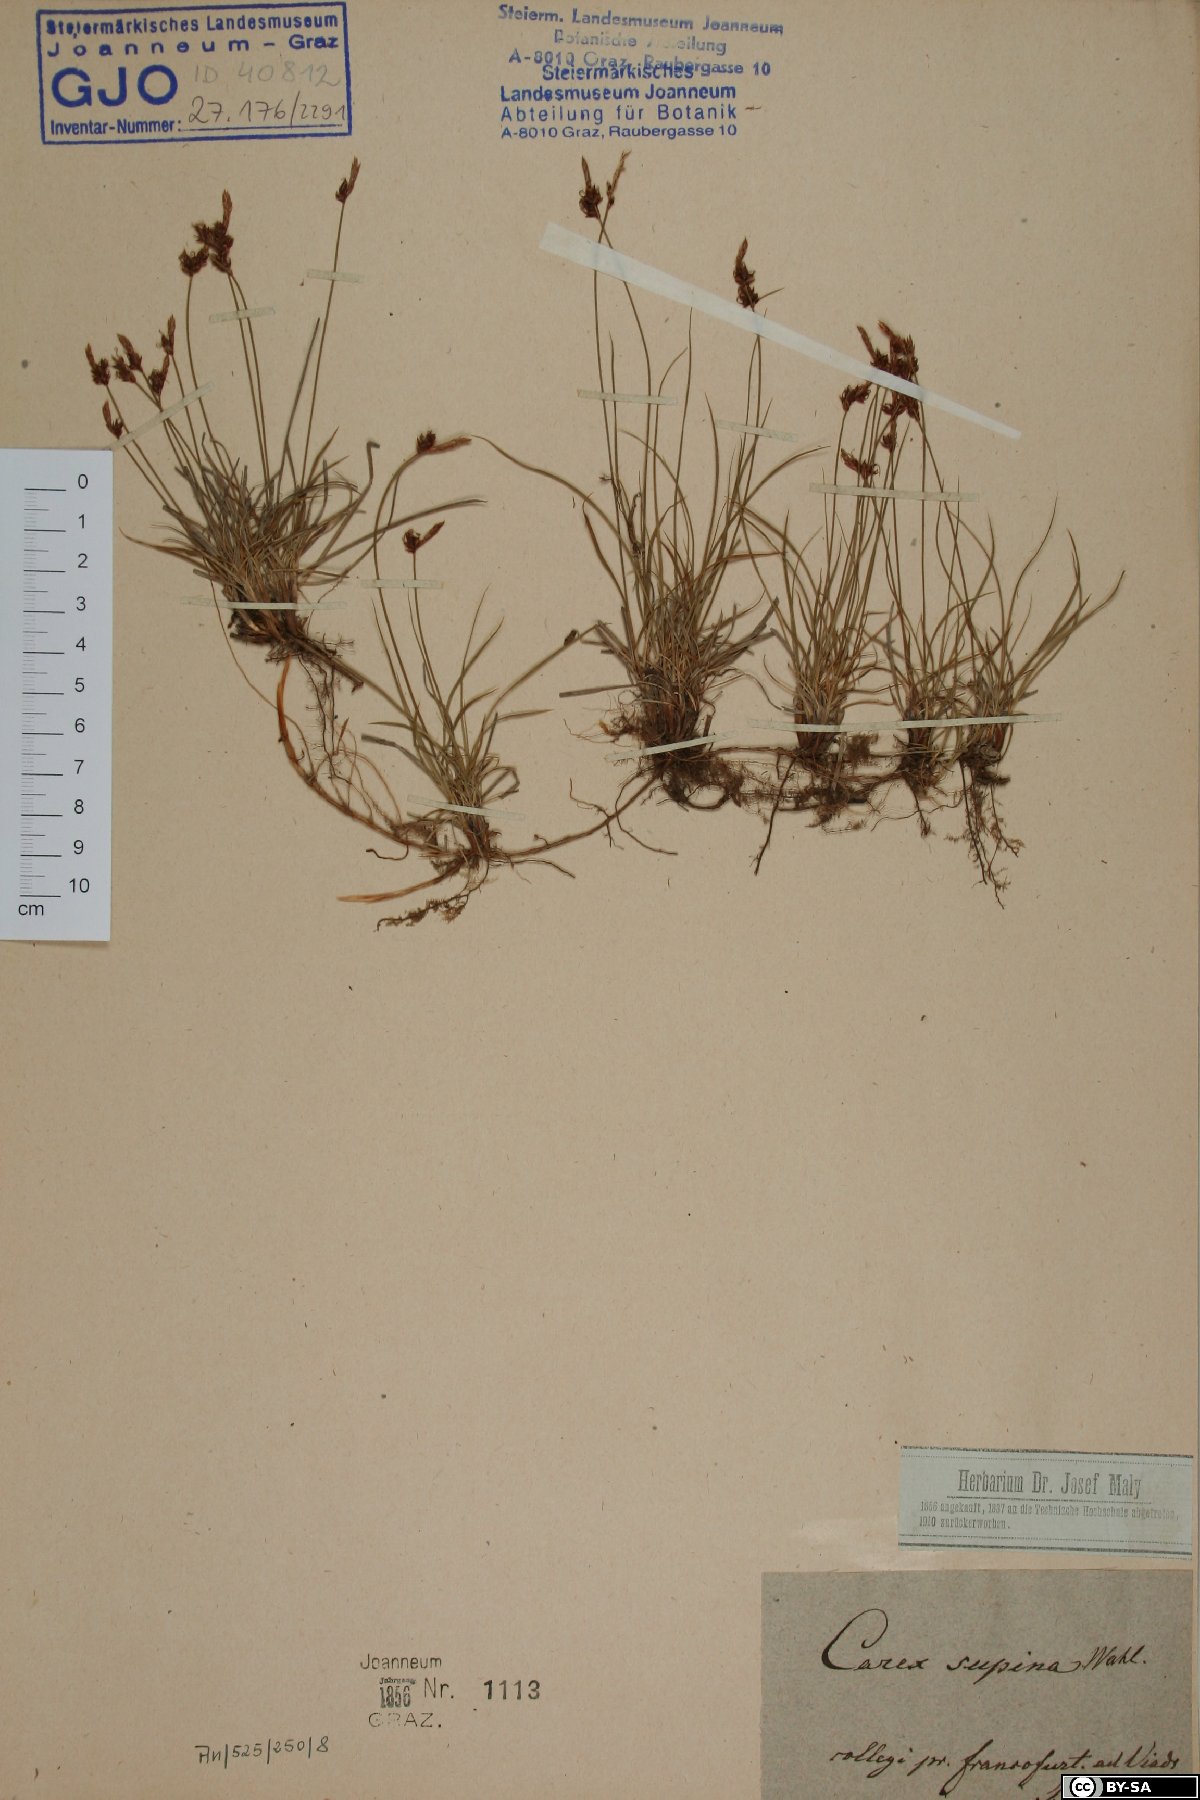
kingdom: Plantae
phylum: Tracheophyta
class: Liliopsida
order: Poales
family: Cyperaceae
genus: Carex
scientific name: Carex supina
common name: Lying-back sedge
